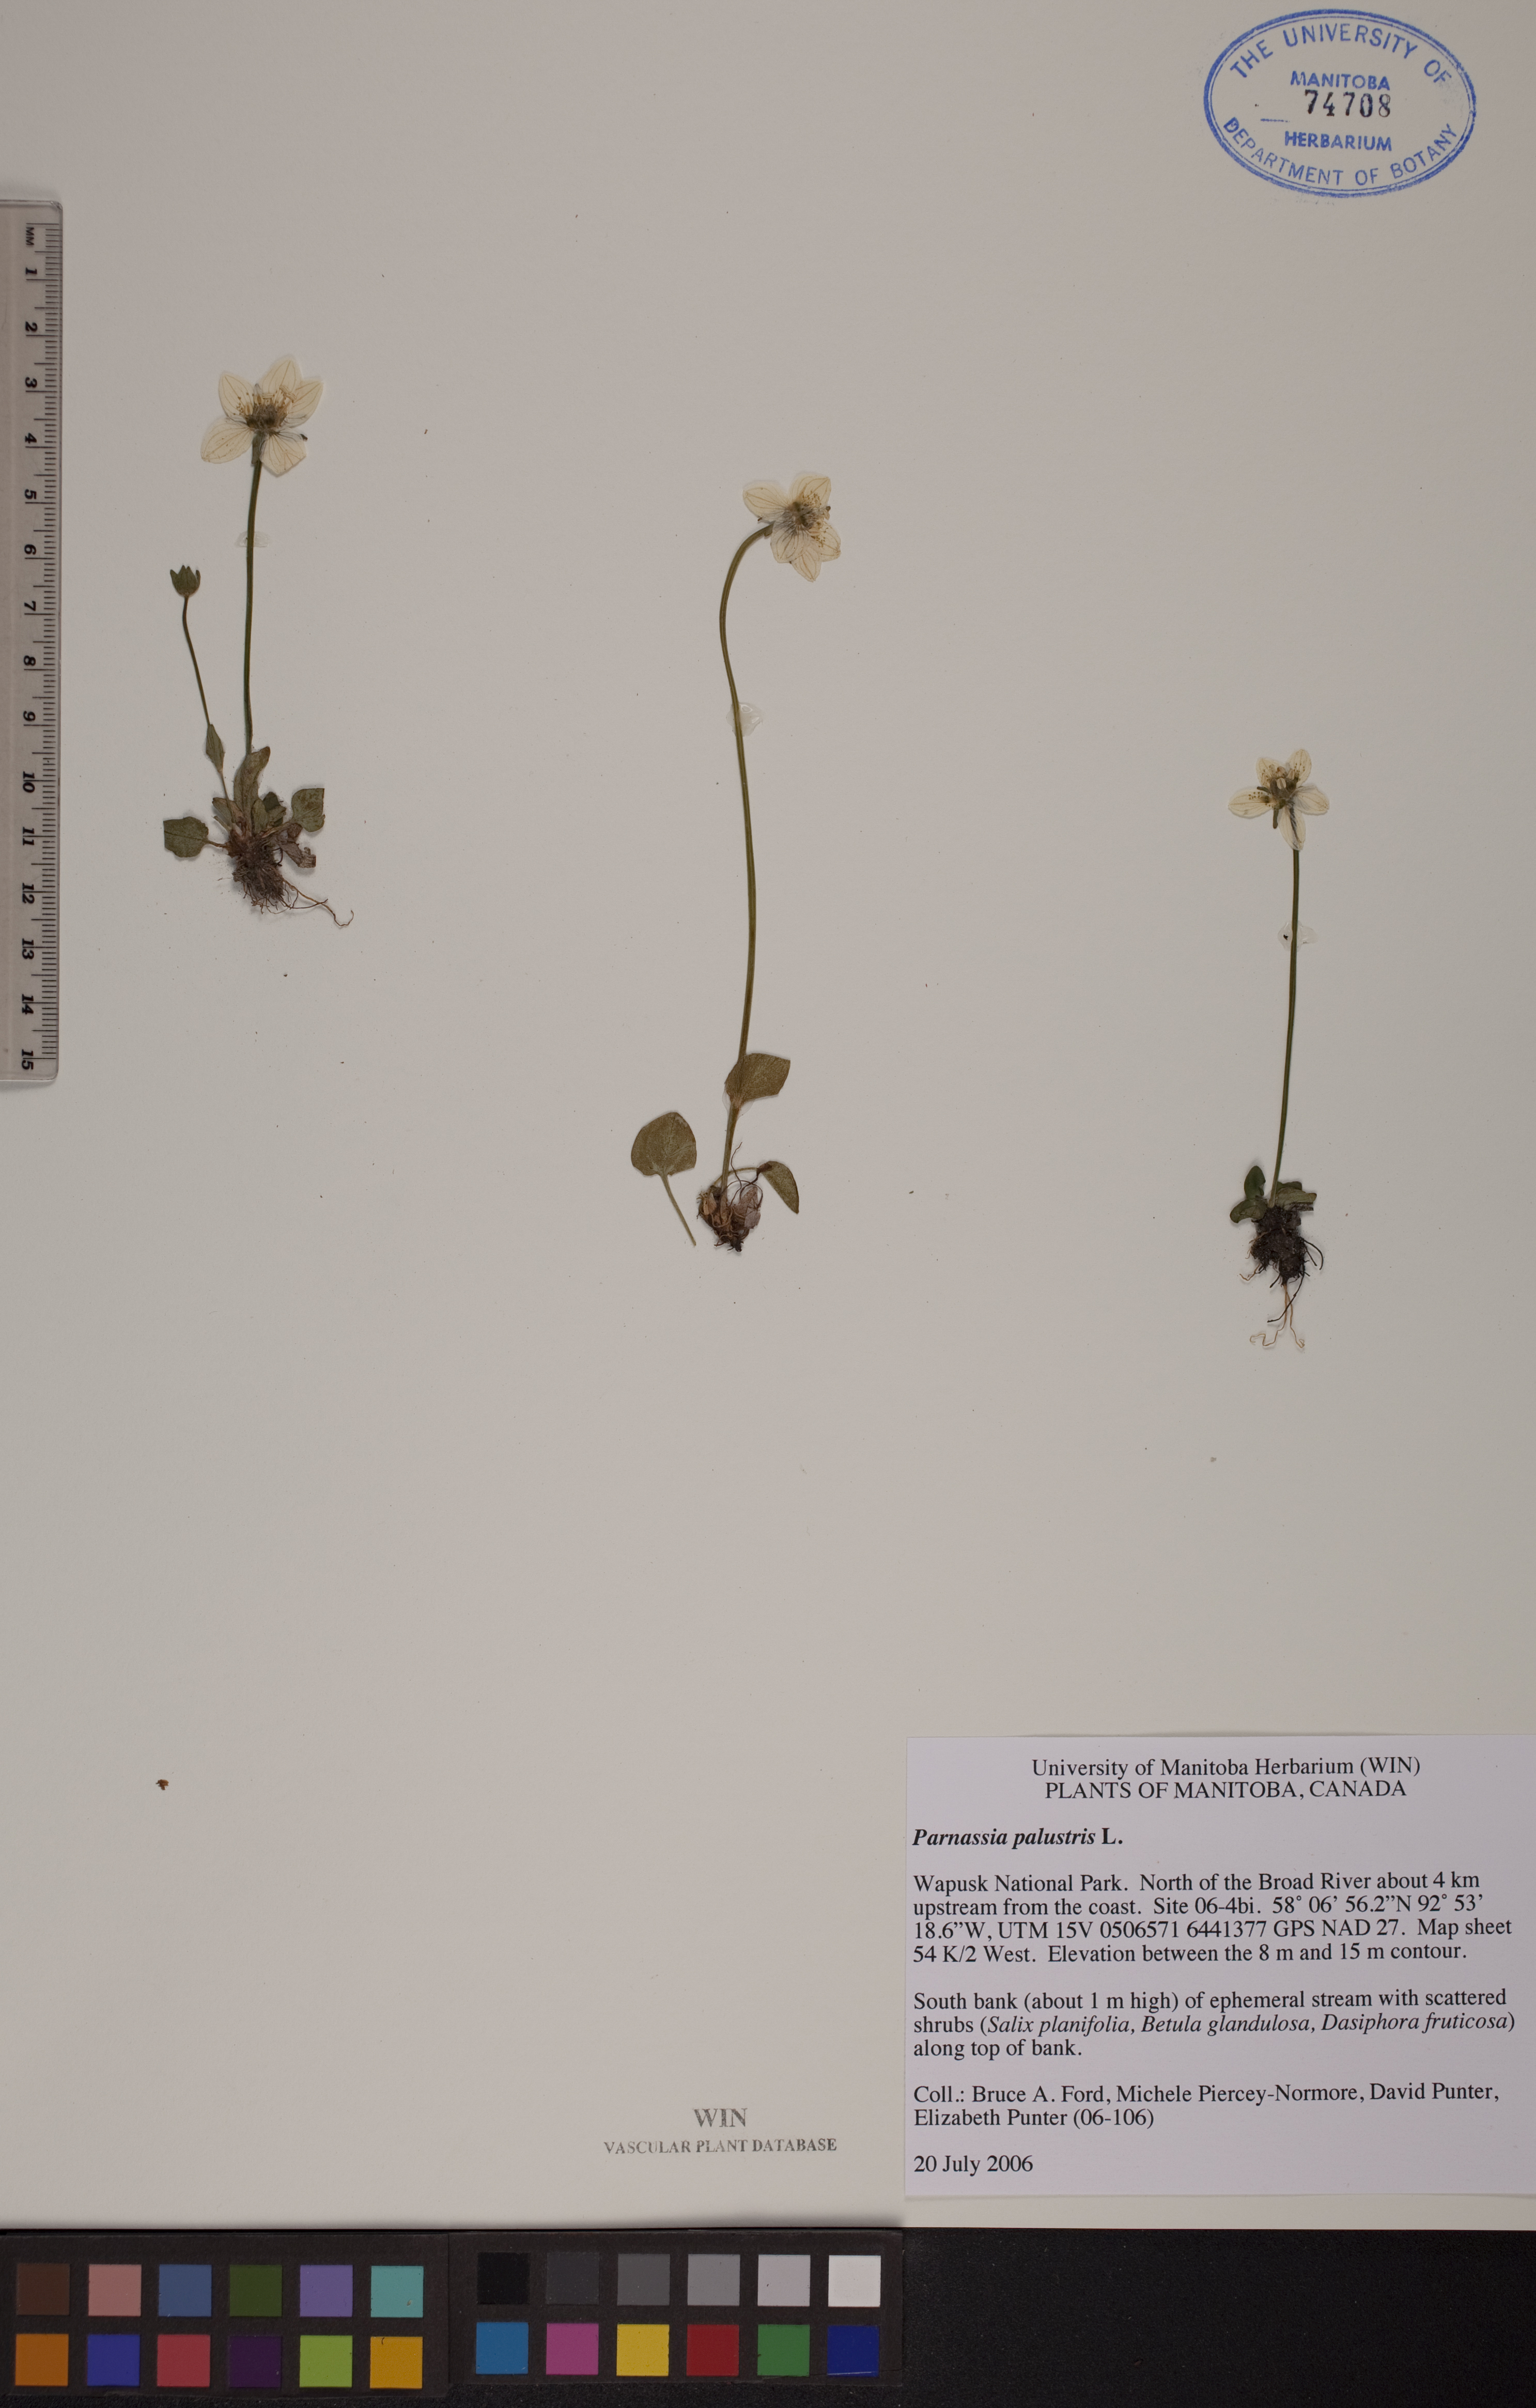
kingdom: Plantae
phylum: Tracheophyta
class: Magnoliopsida
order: Celastrales
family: Parnassiaceae
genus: Parnassia
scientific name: Parnassia palustris
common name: Grass-of-parnassus
